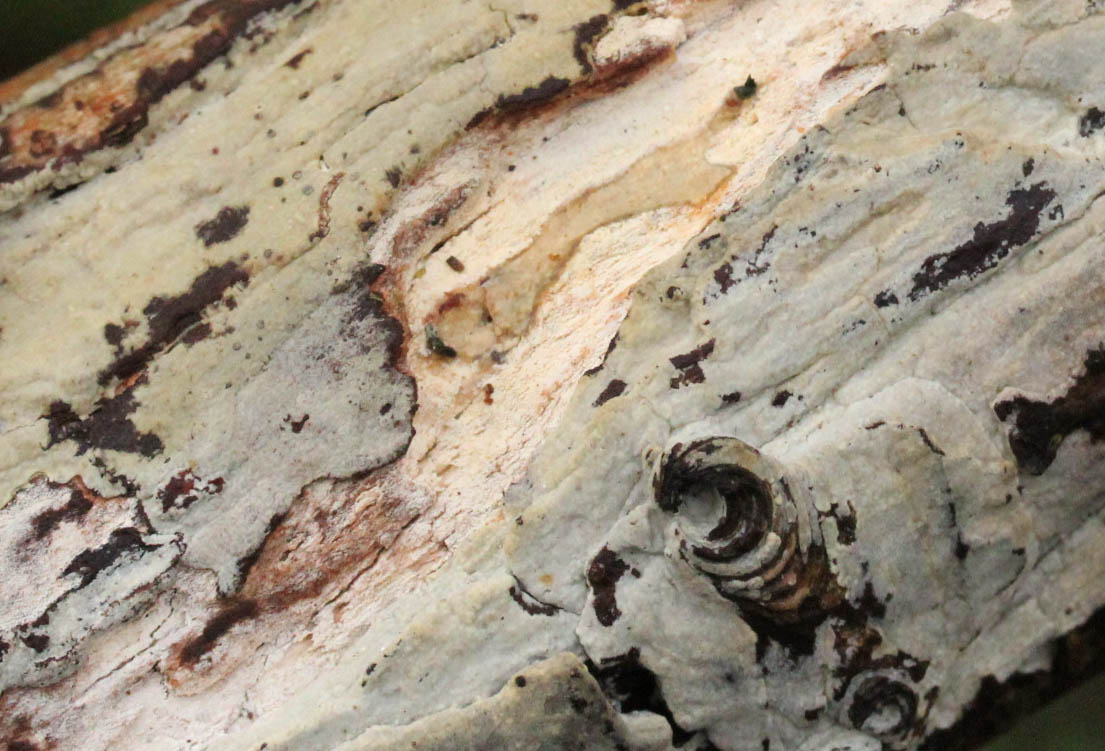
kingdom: Fungi
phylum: Basidiomycota
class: Agaricomycetes
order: Hymenochaetales
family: Rickenellaceae
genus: Peniophorella
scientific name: Peniophorella pubera
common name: dunet kalkskind
